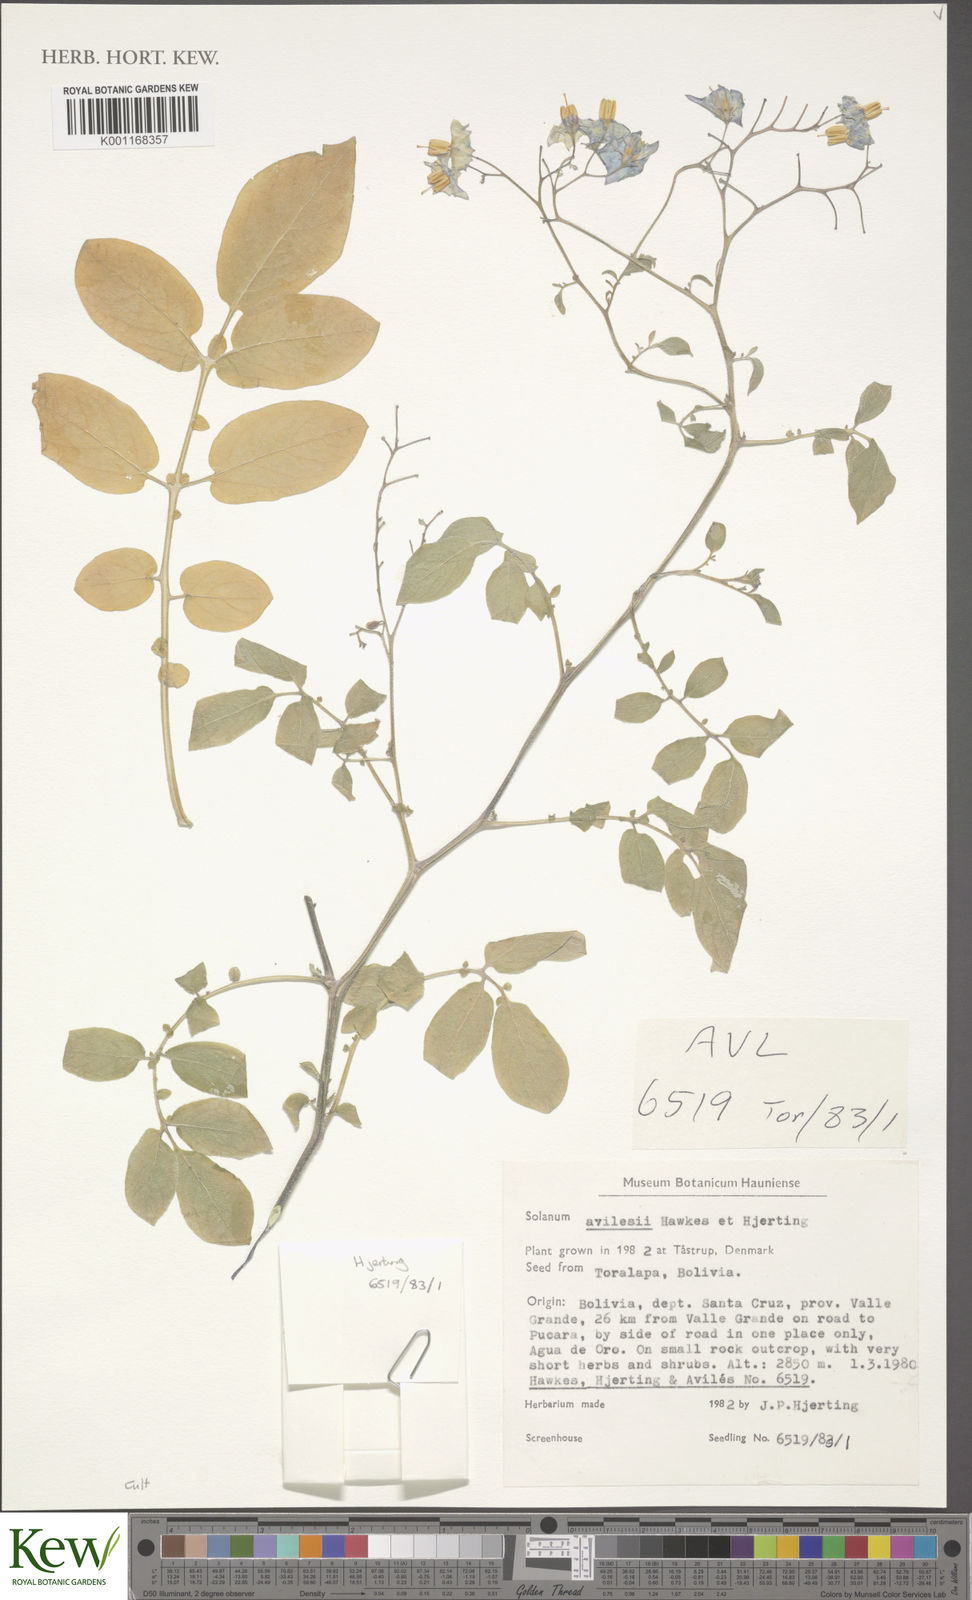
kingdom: Plantae
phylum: Tracheophyta
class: Magnoliopsida
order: Solanales
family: Solanaceae
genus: Solanum
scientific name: Solanum brevicaule
